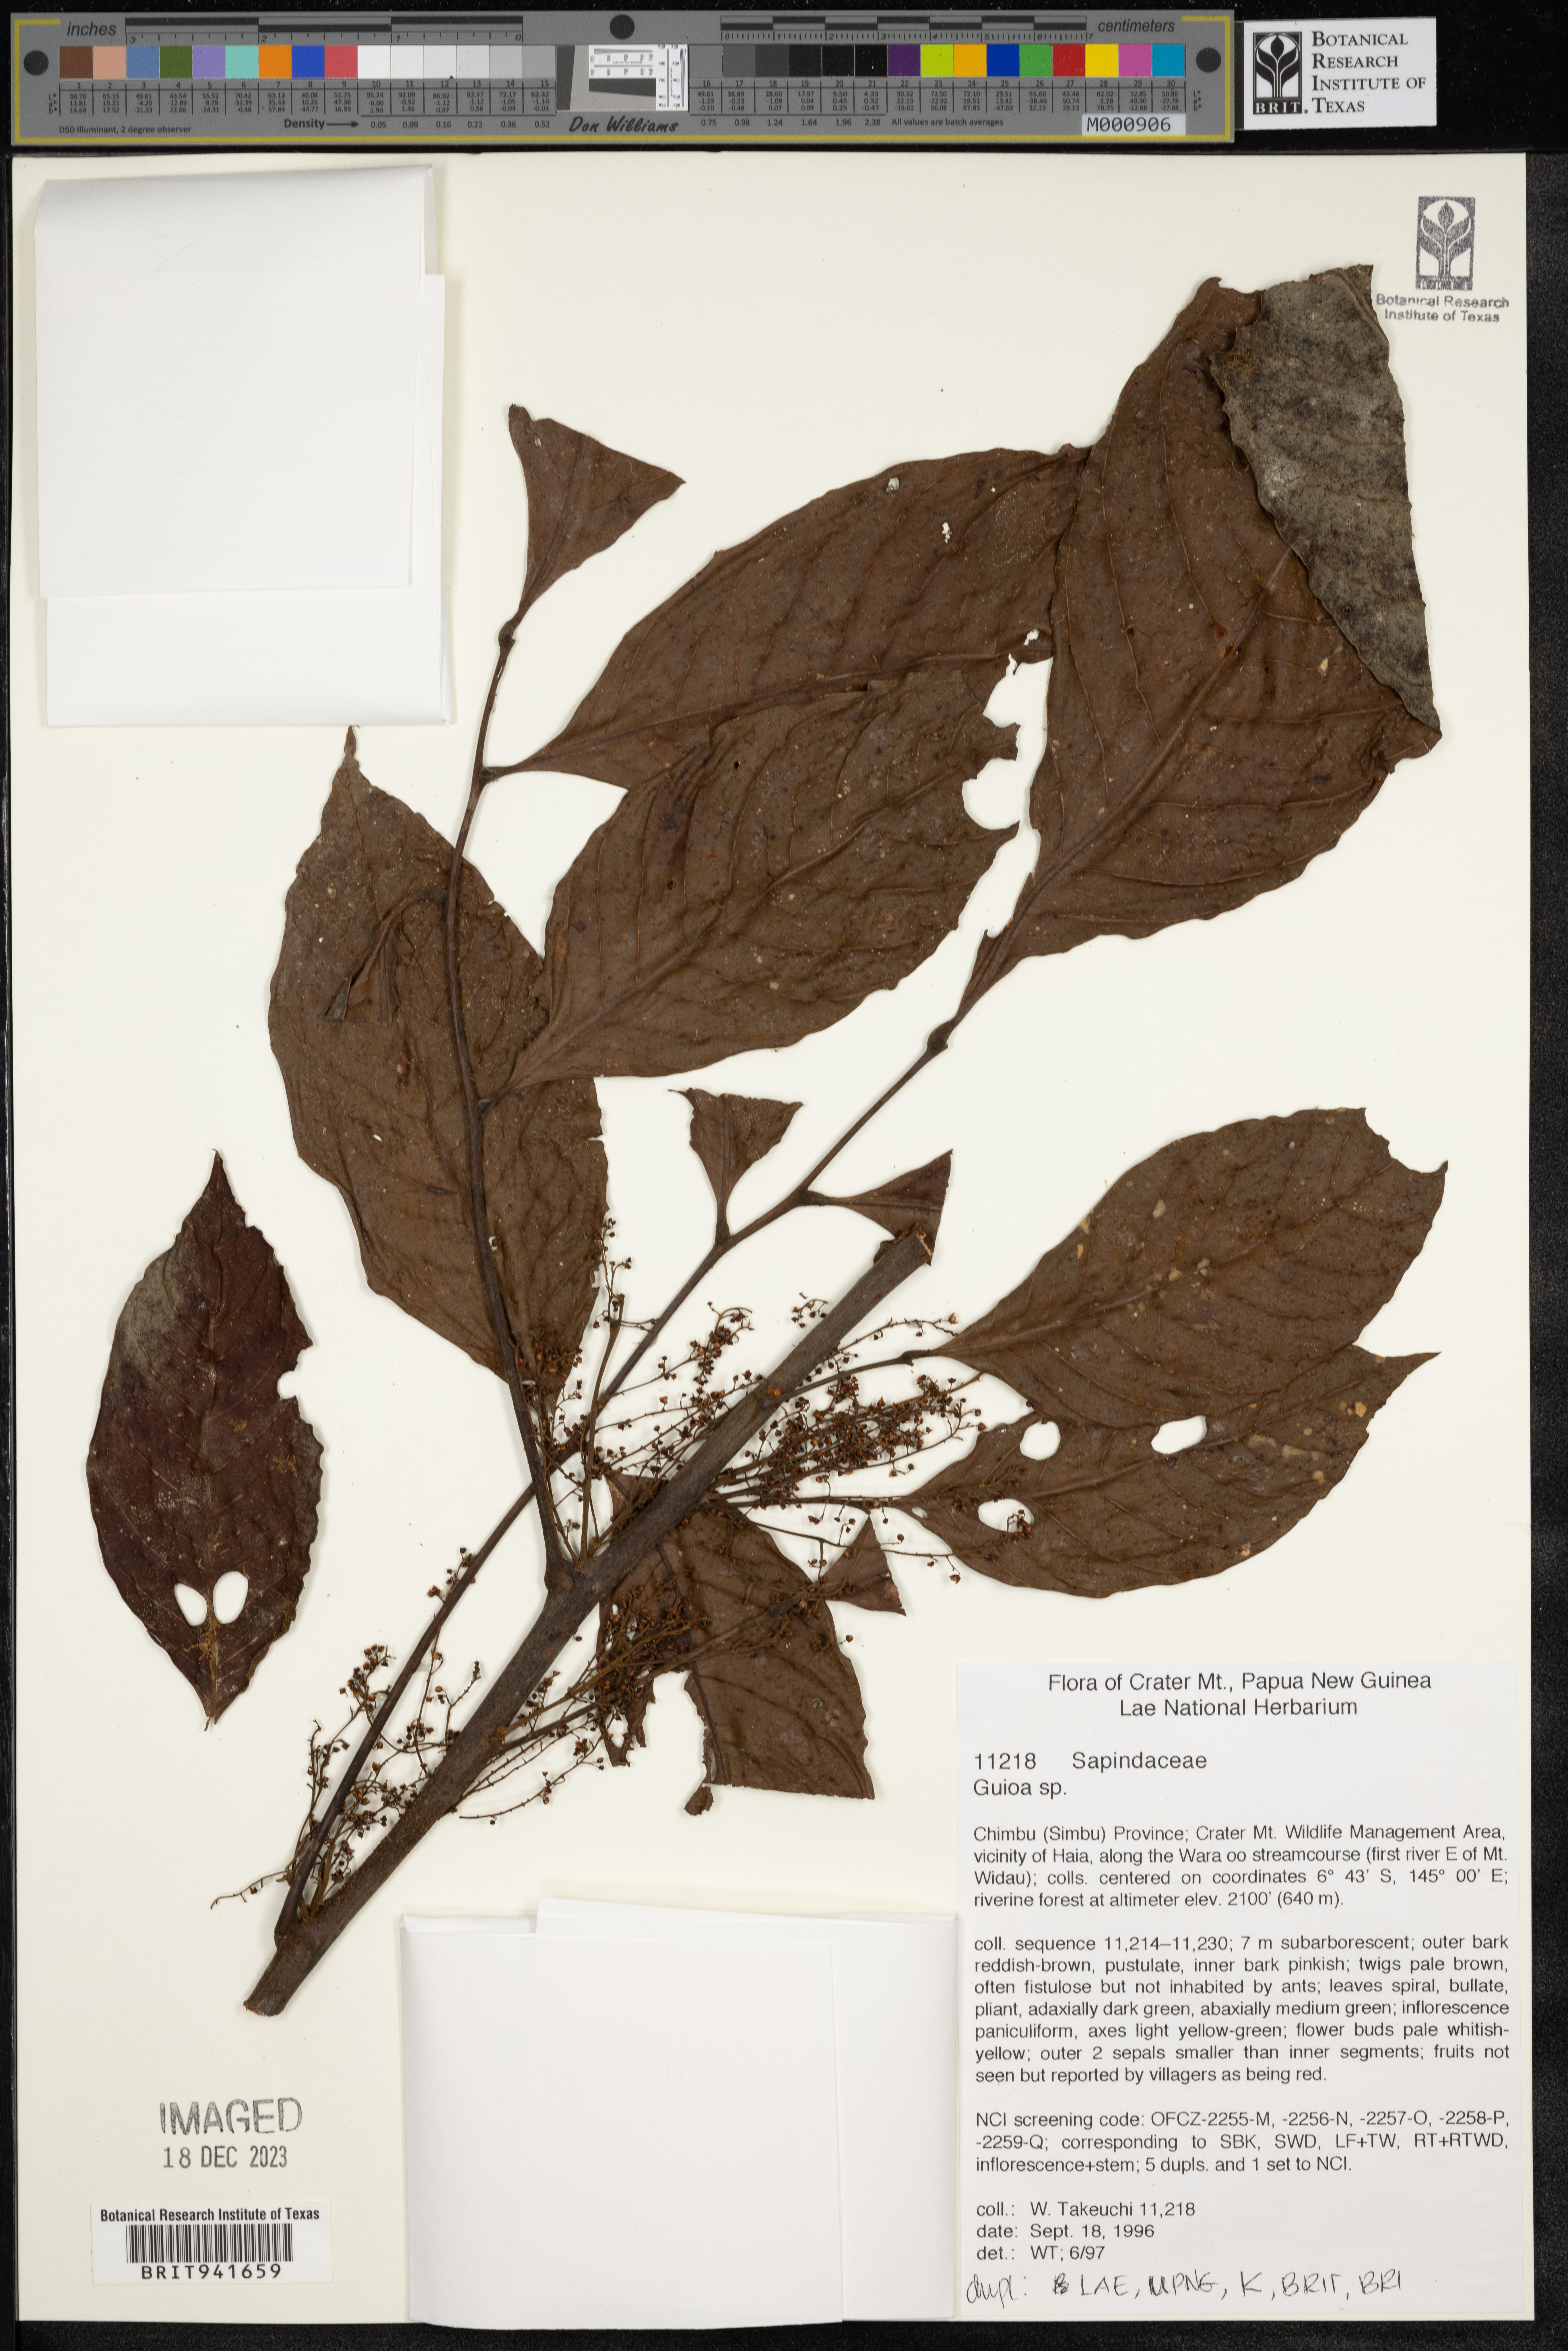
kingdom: Plantae
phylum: Tracheophyta
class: Magnoliopsida
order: Sapindales
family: Sapindaceae
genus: Guioa
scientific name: Guioa
